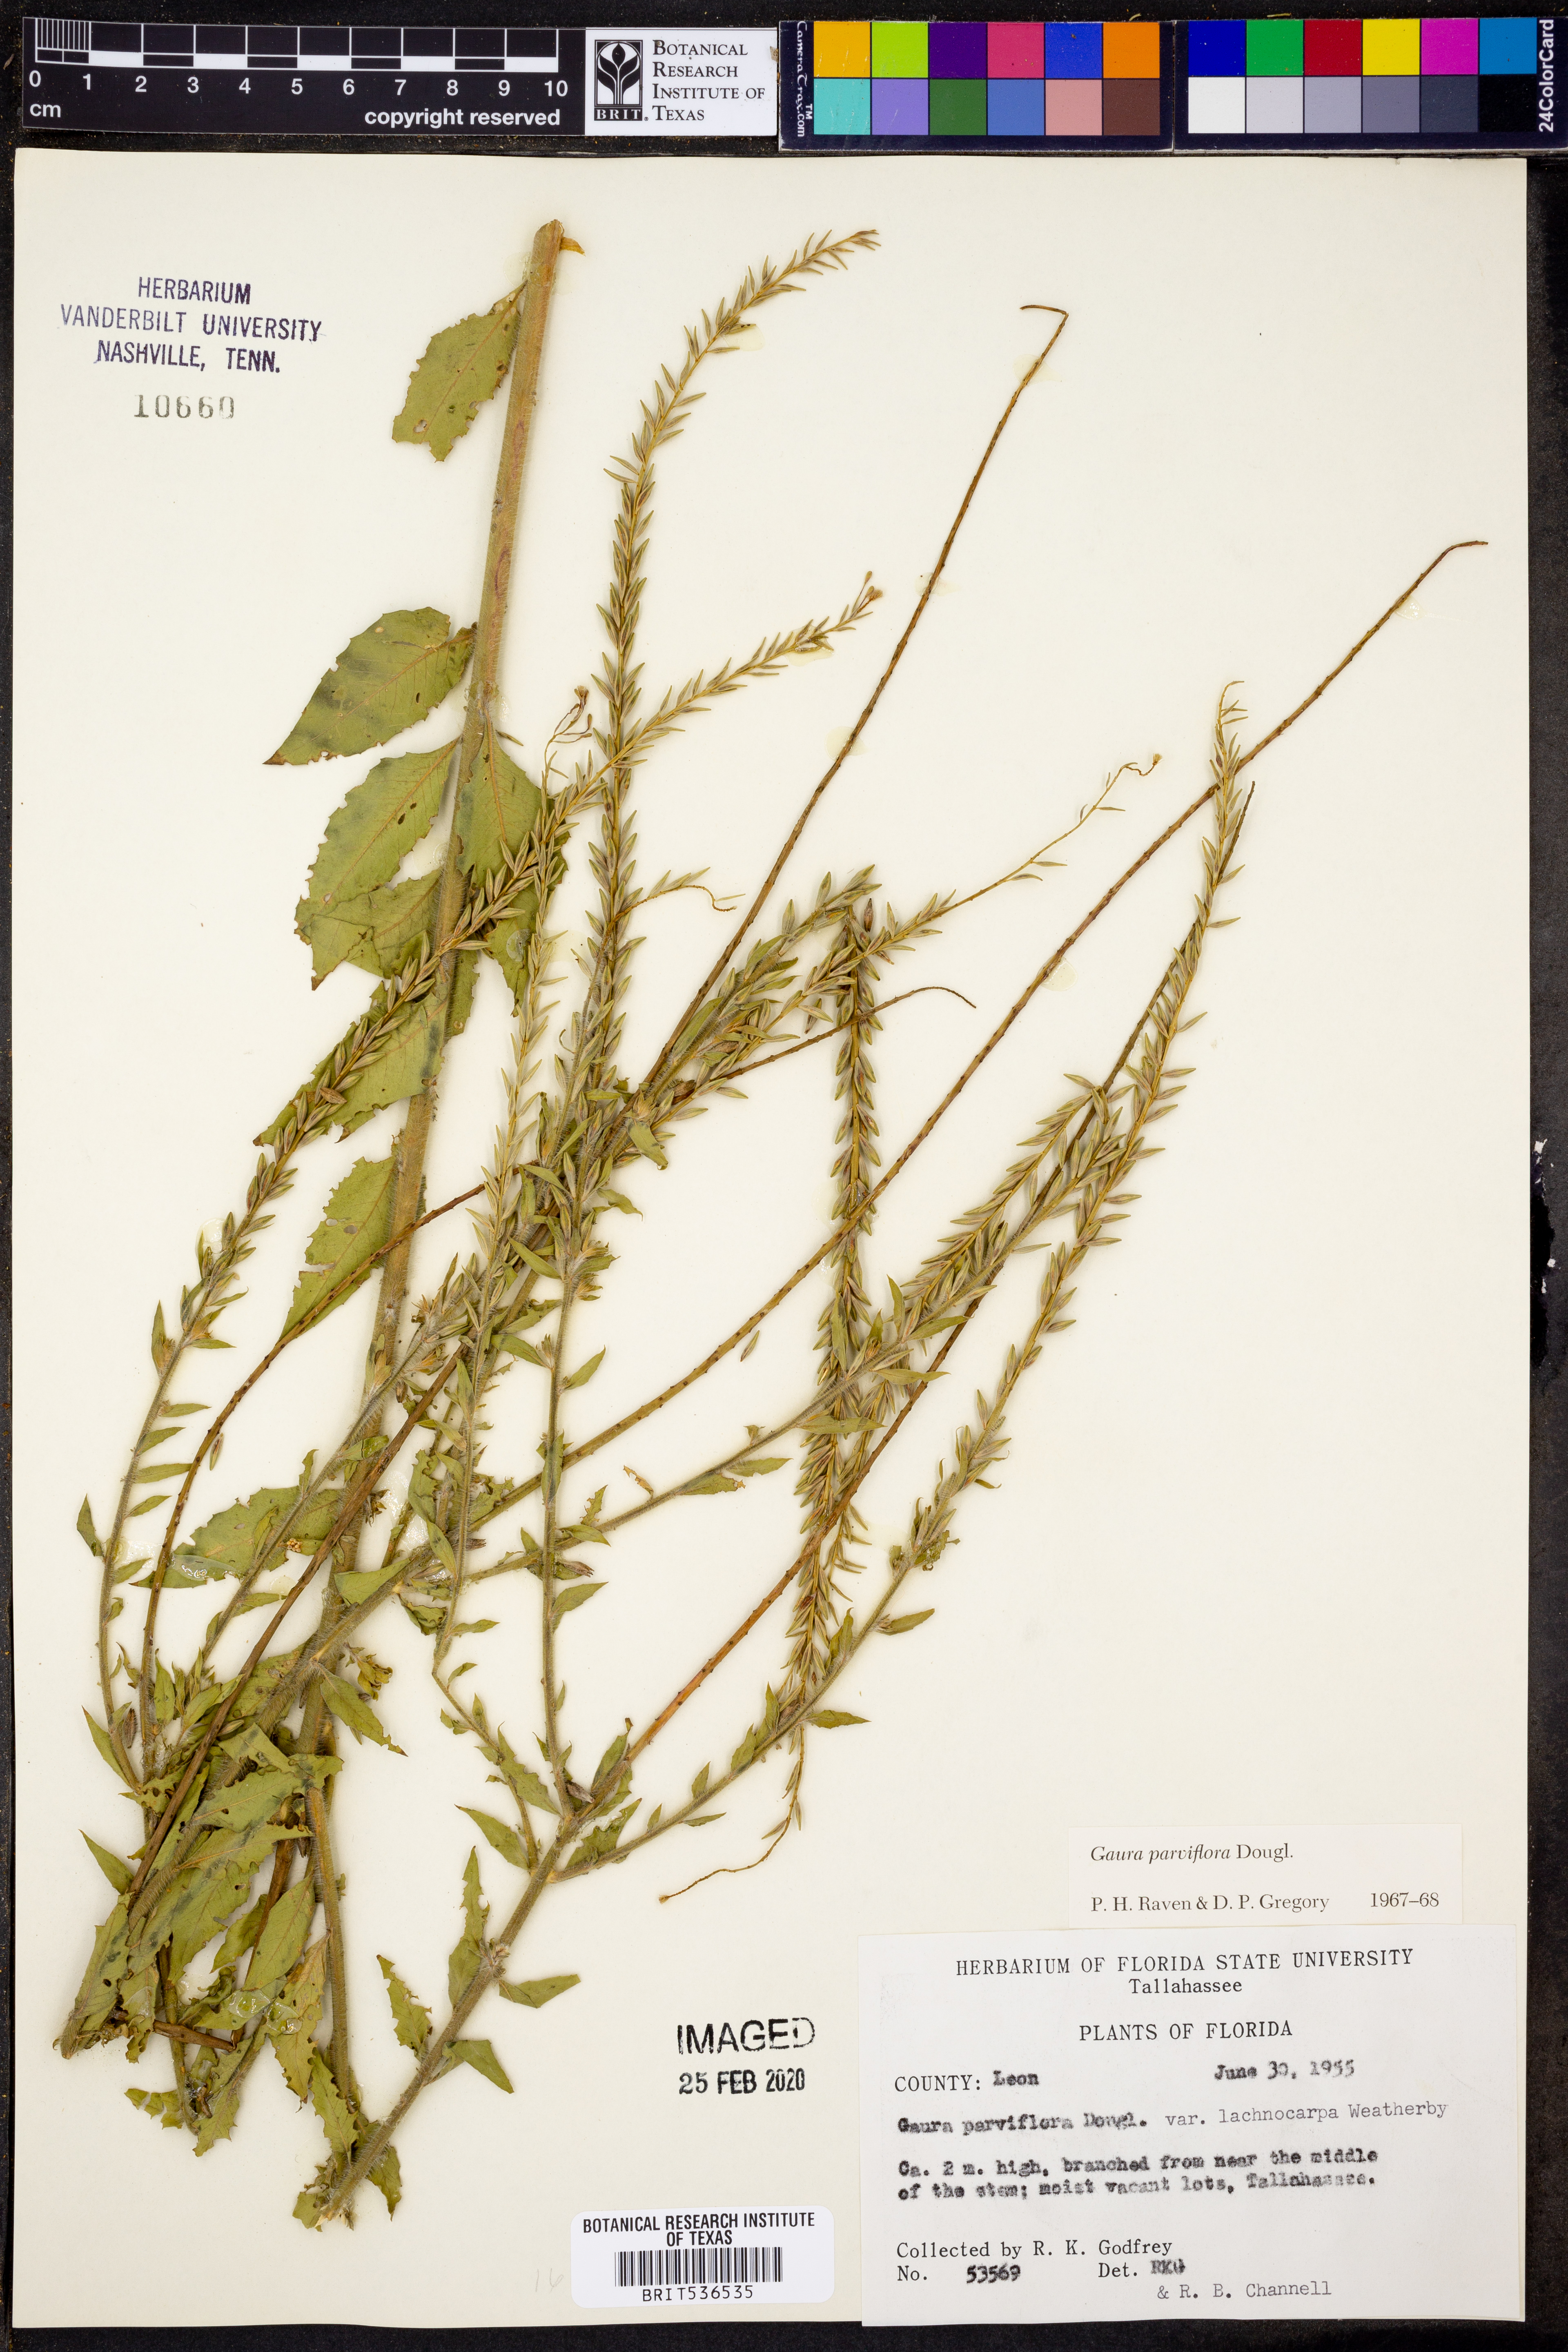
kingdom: Plantae
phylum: Tracheophyta
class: Magnoliopsida
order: Myrtales
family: Onagraceae
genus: Oenothera
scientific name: Oenothera curtiflora
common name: Velvetweed
